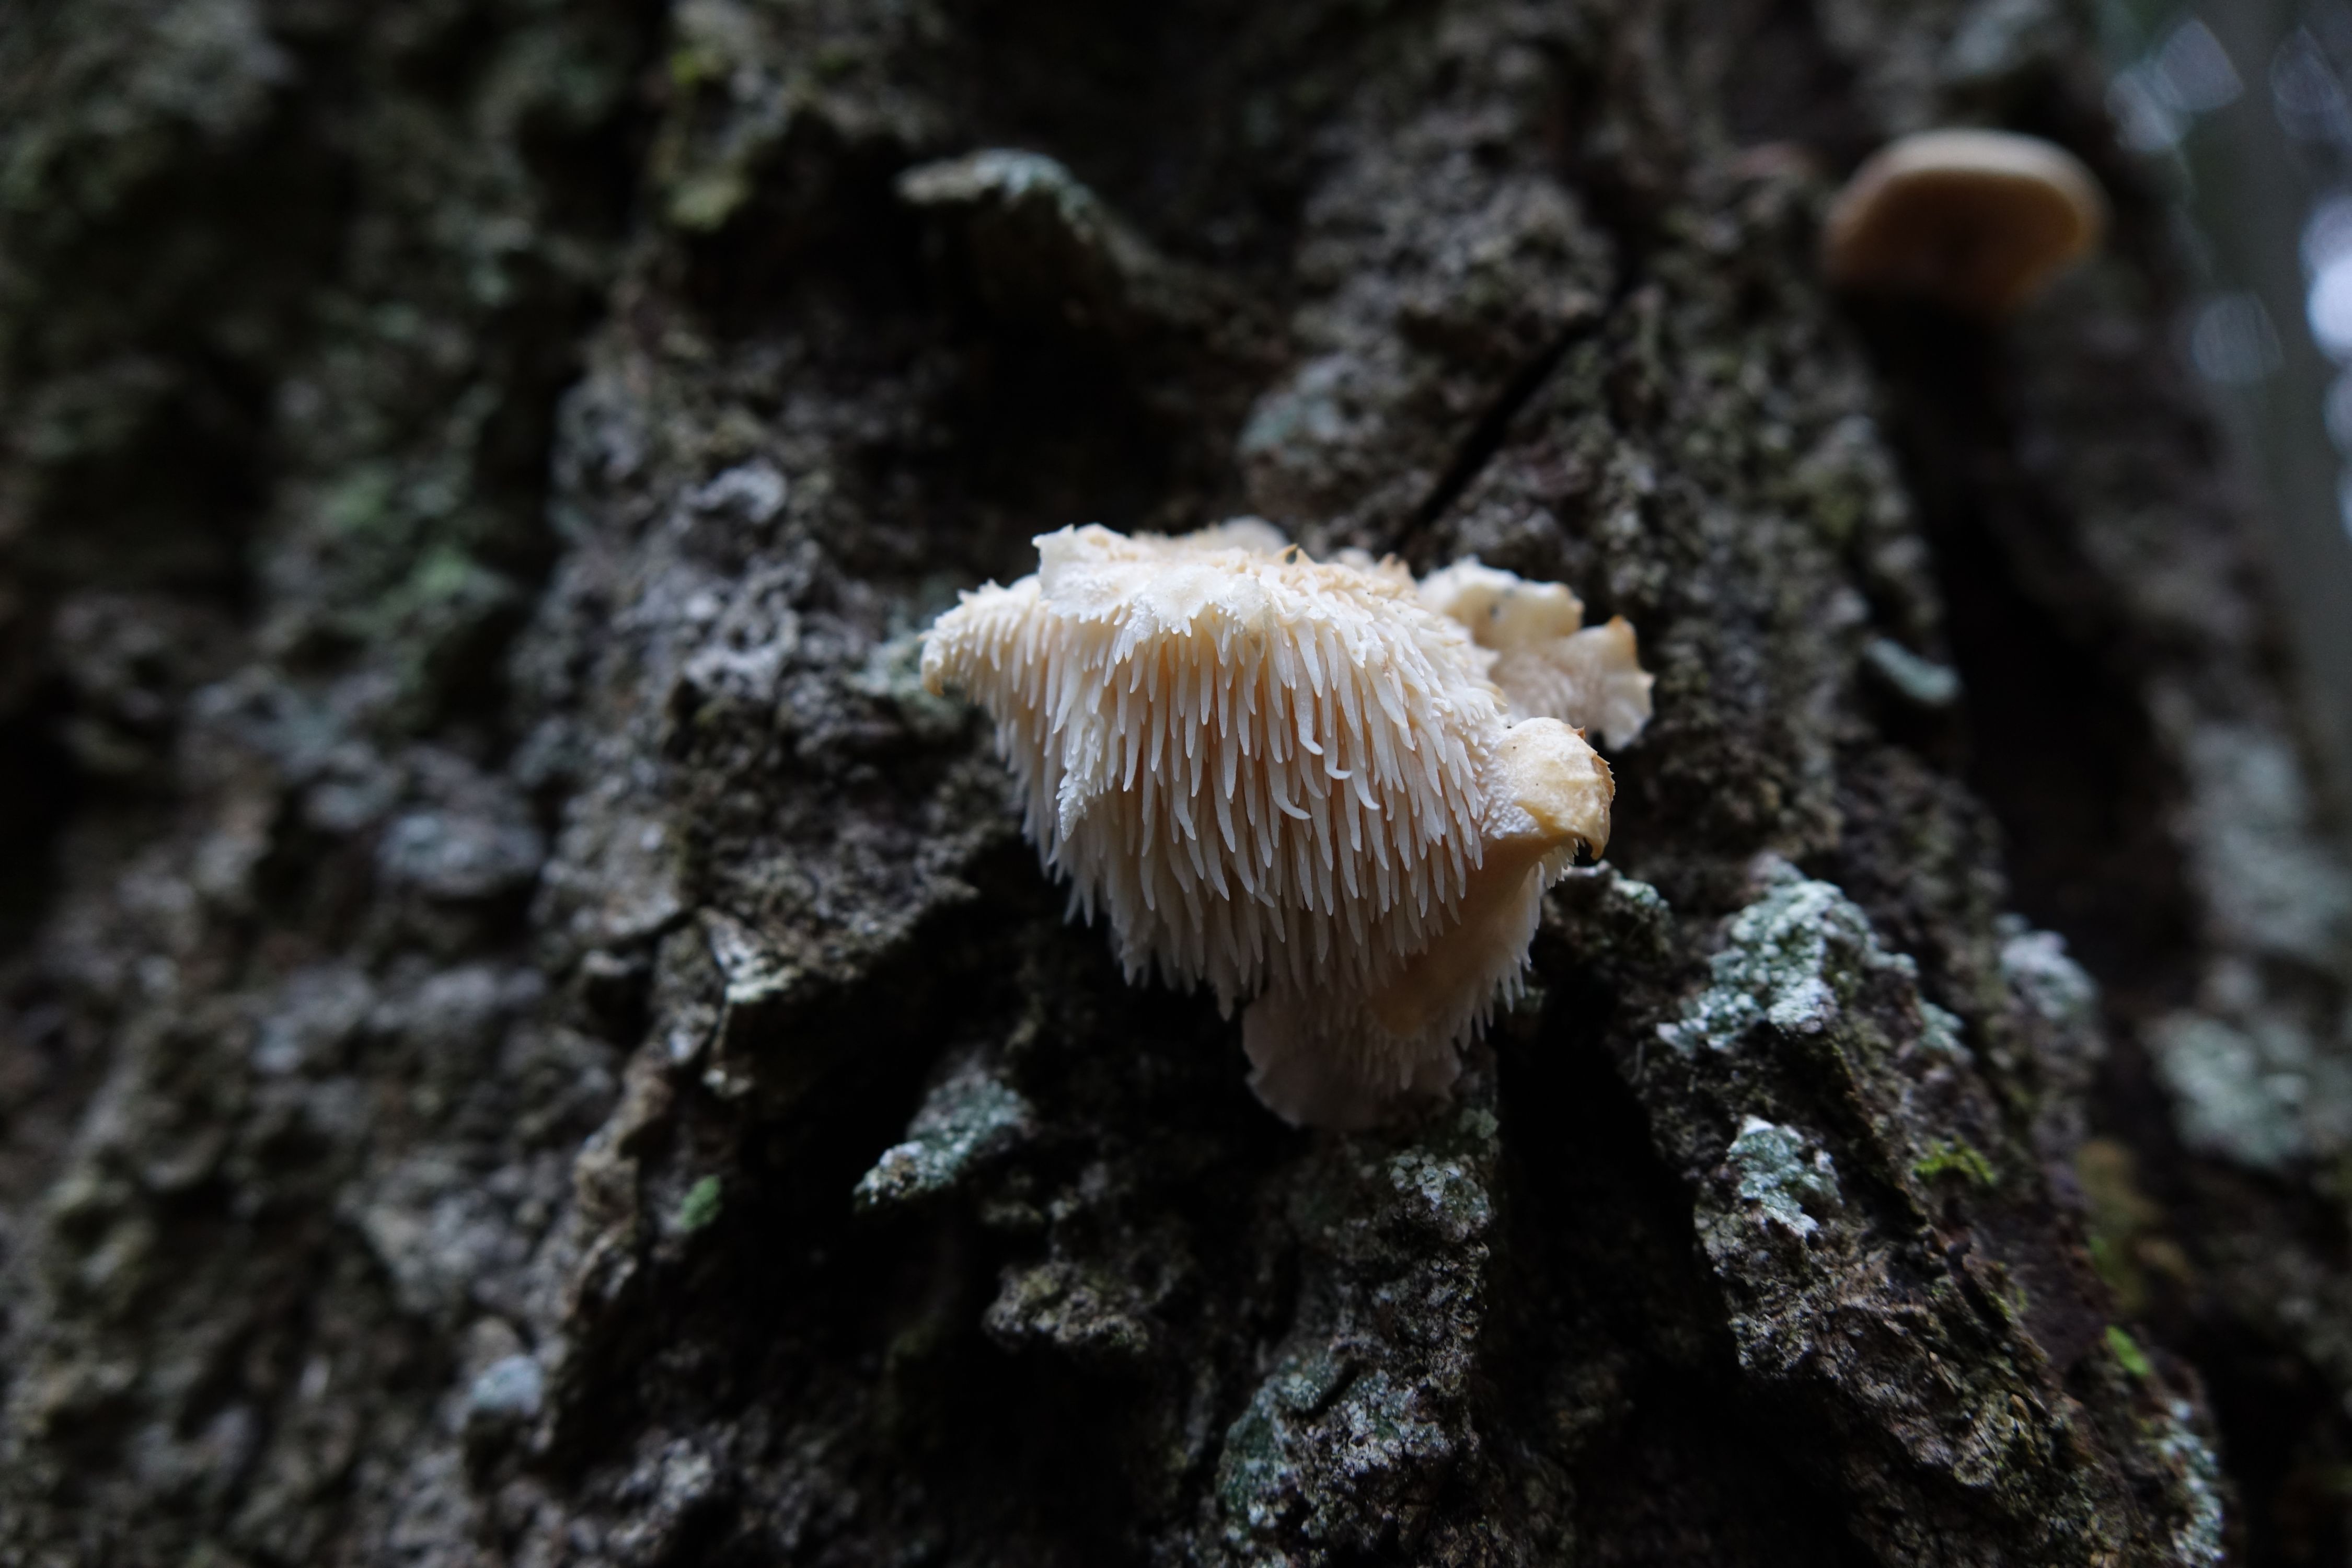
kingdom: Fungi
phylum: Basidiomycota
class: Agaricomycetes
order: Russulales
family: Hericiaceae
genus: Hericium
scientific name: Hericium cirrhatum
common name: Tiered tooth
